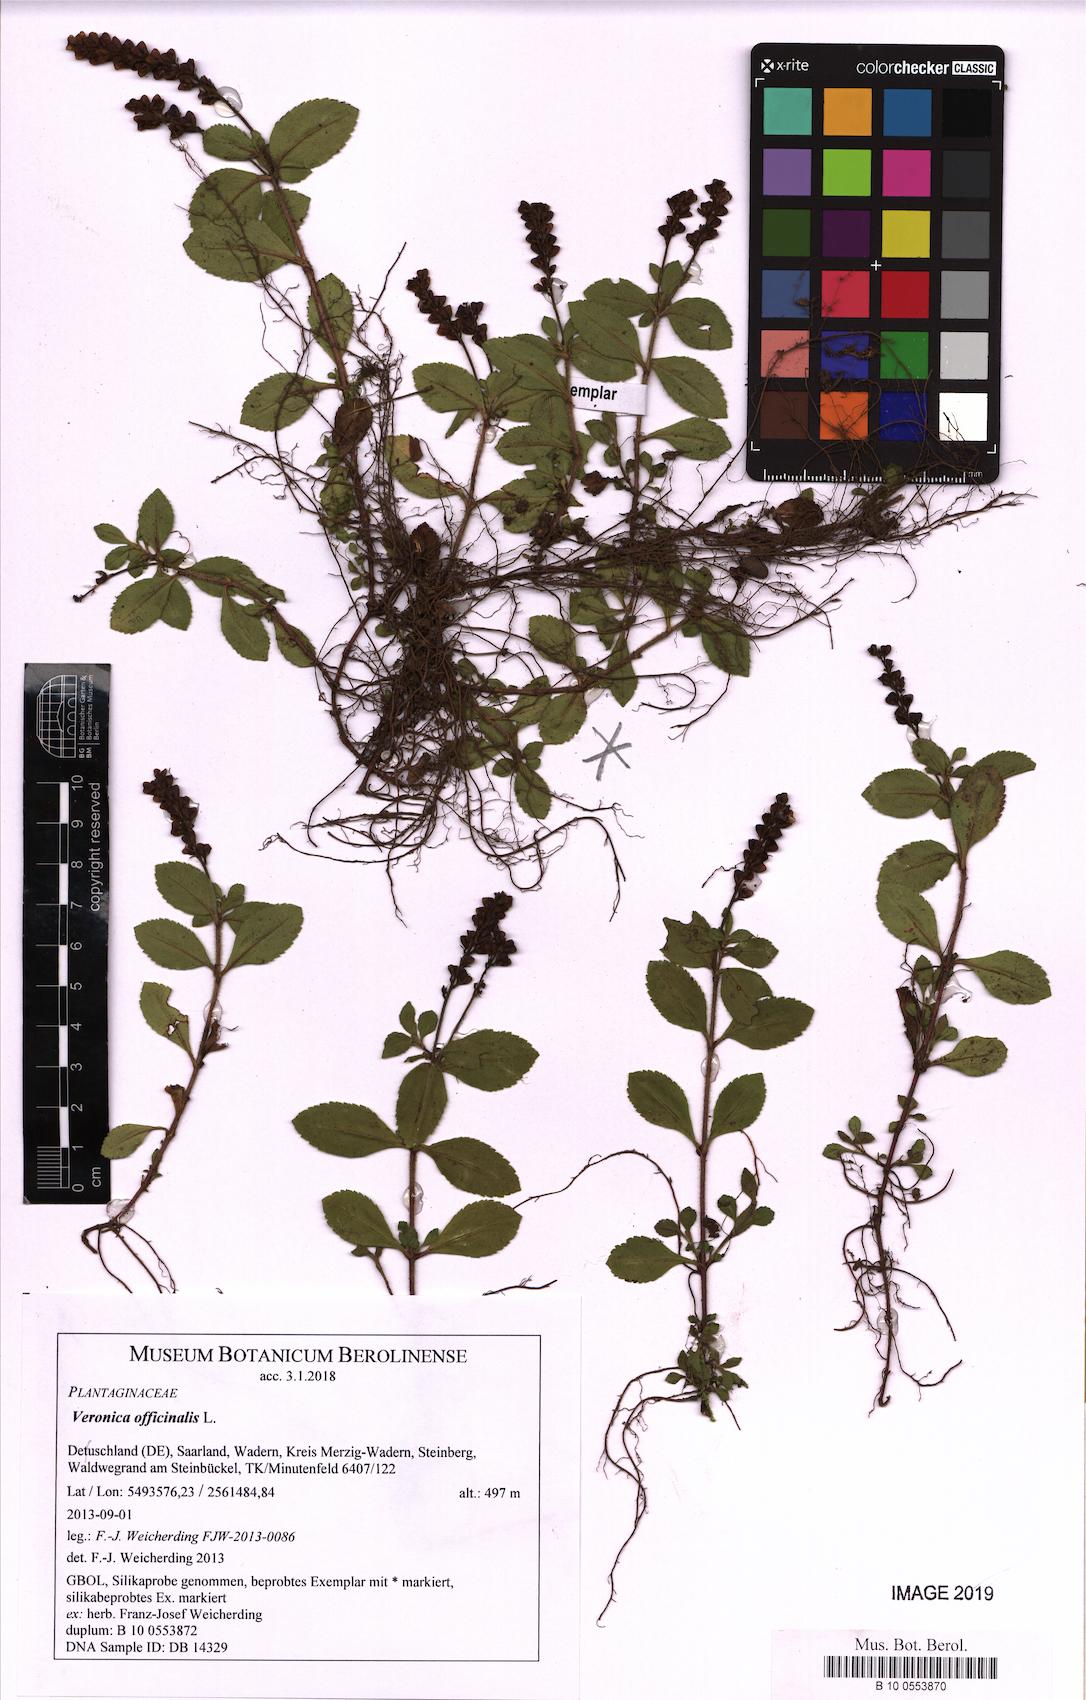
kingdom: Plantae
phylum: Tracheophyta
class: Magnoliopsida
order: Lamiales
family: Plantaginaceae
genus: Veronica
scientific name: Veronica officinalis
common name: Common speedwell
